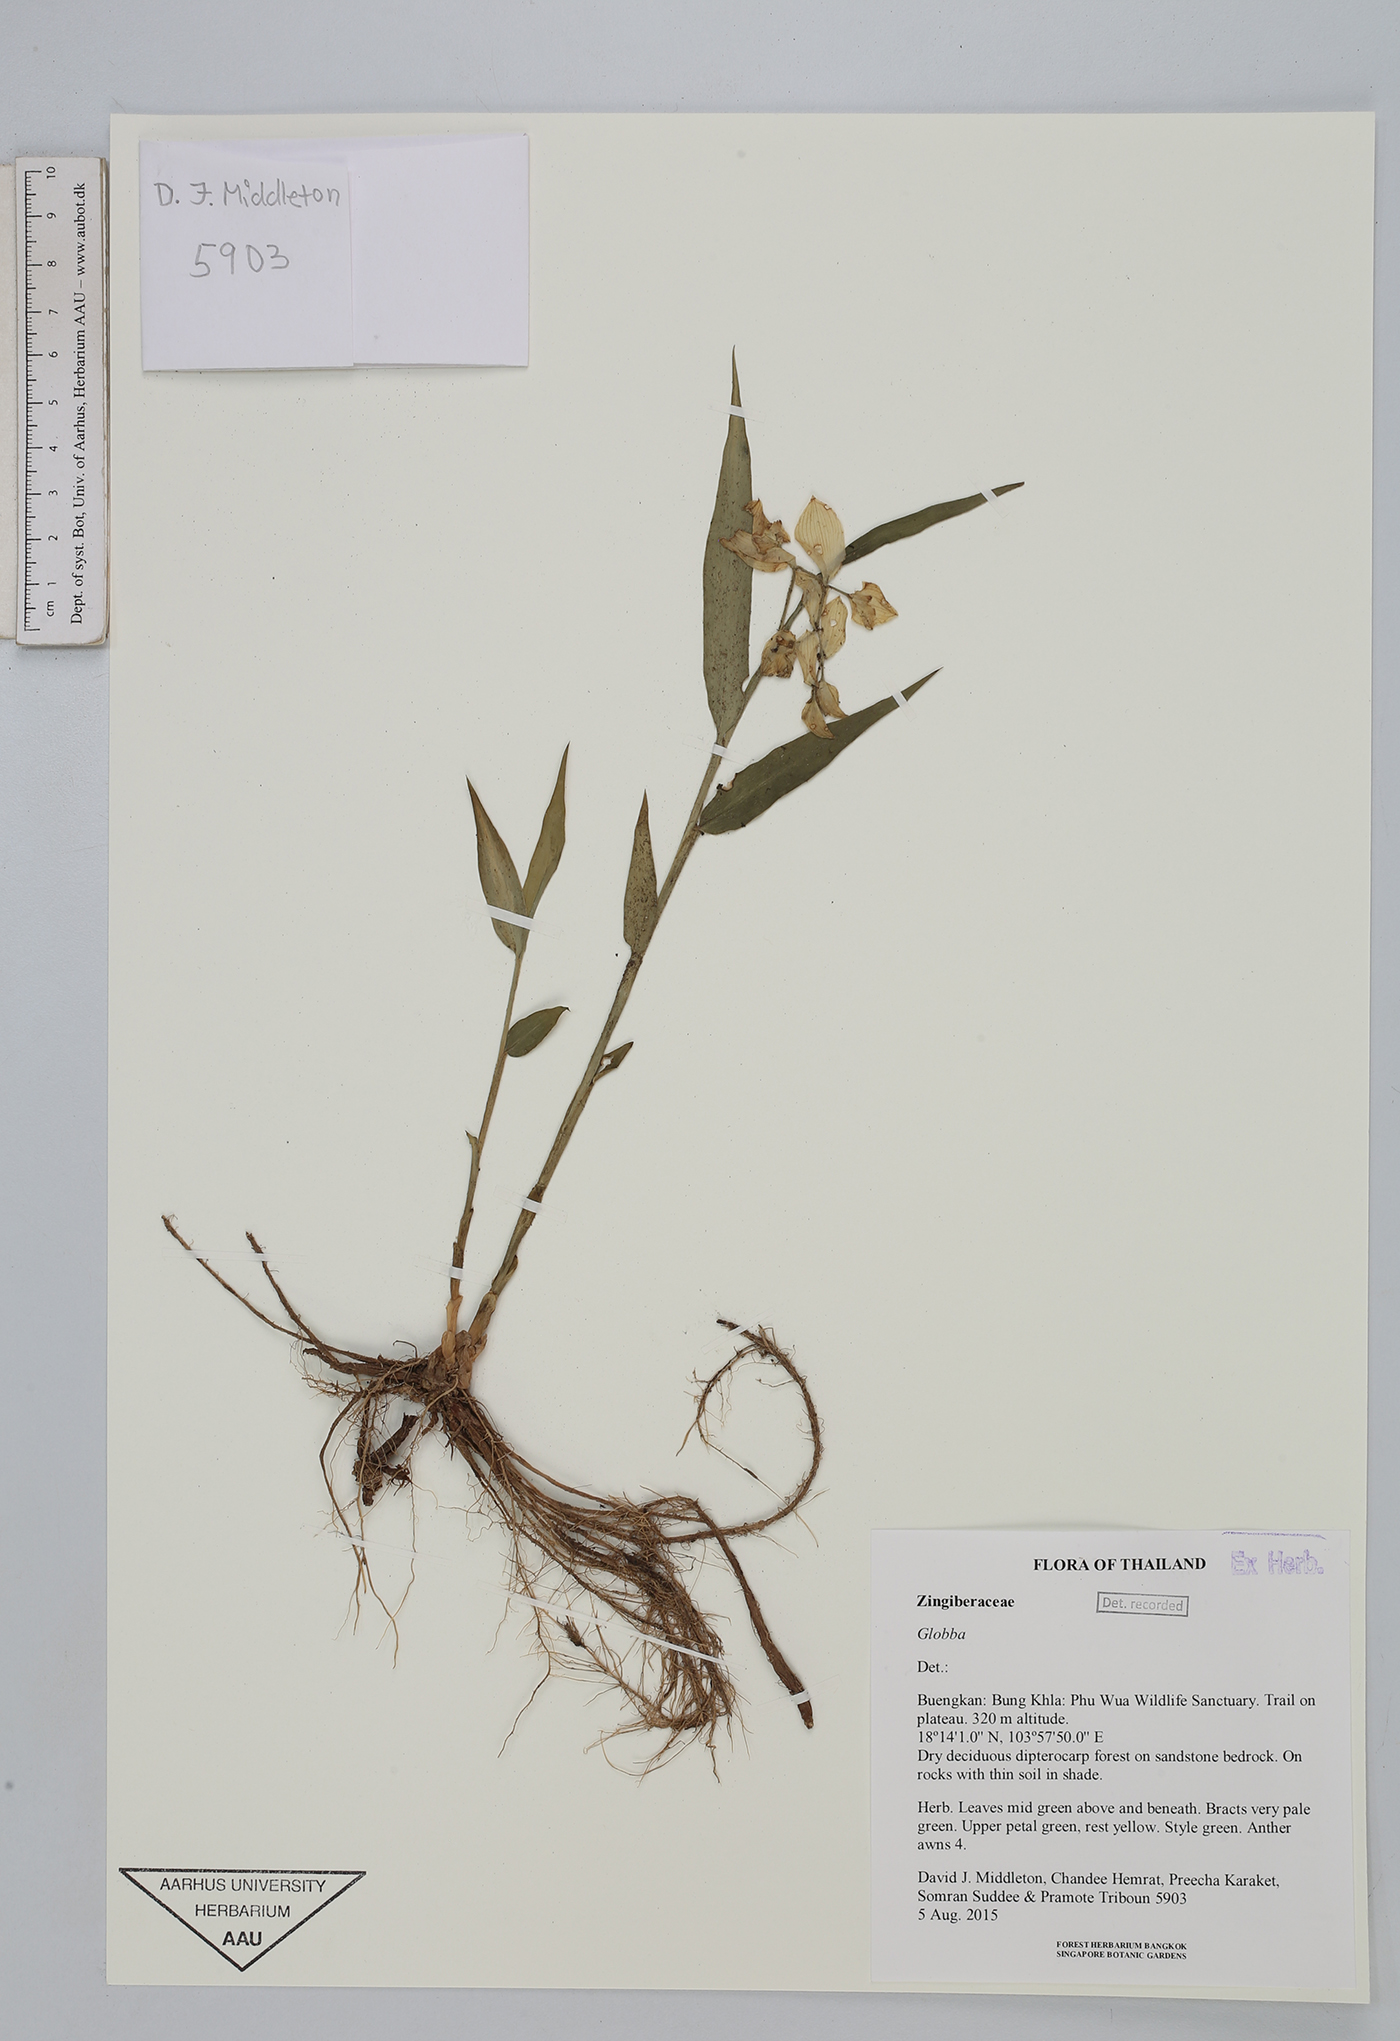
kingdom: Plantae
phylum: Tracheophyta
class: Liliopsida
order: Zingiberales
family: Zingiberaceae
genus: Globba
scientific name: Globba
